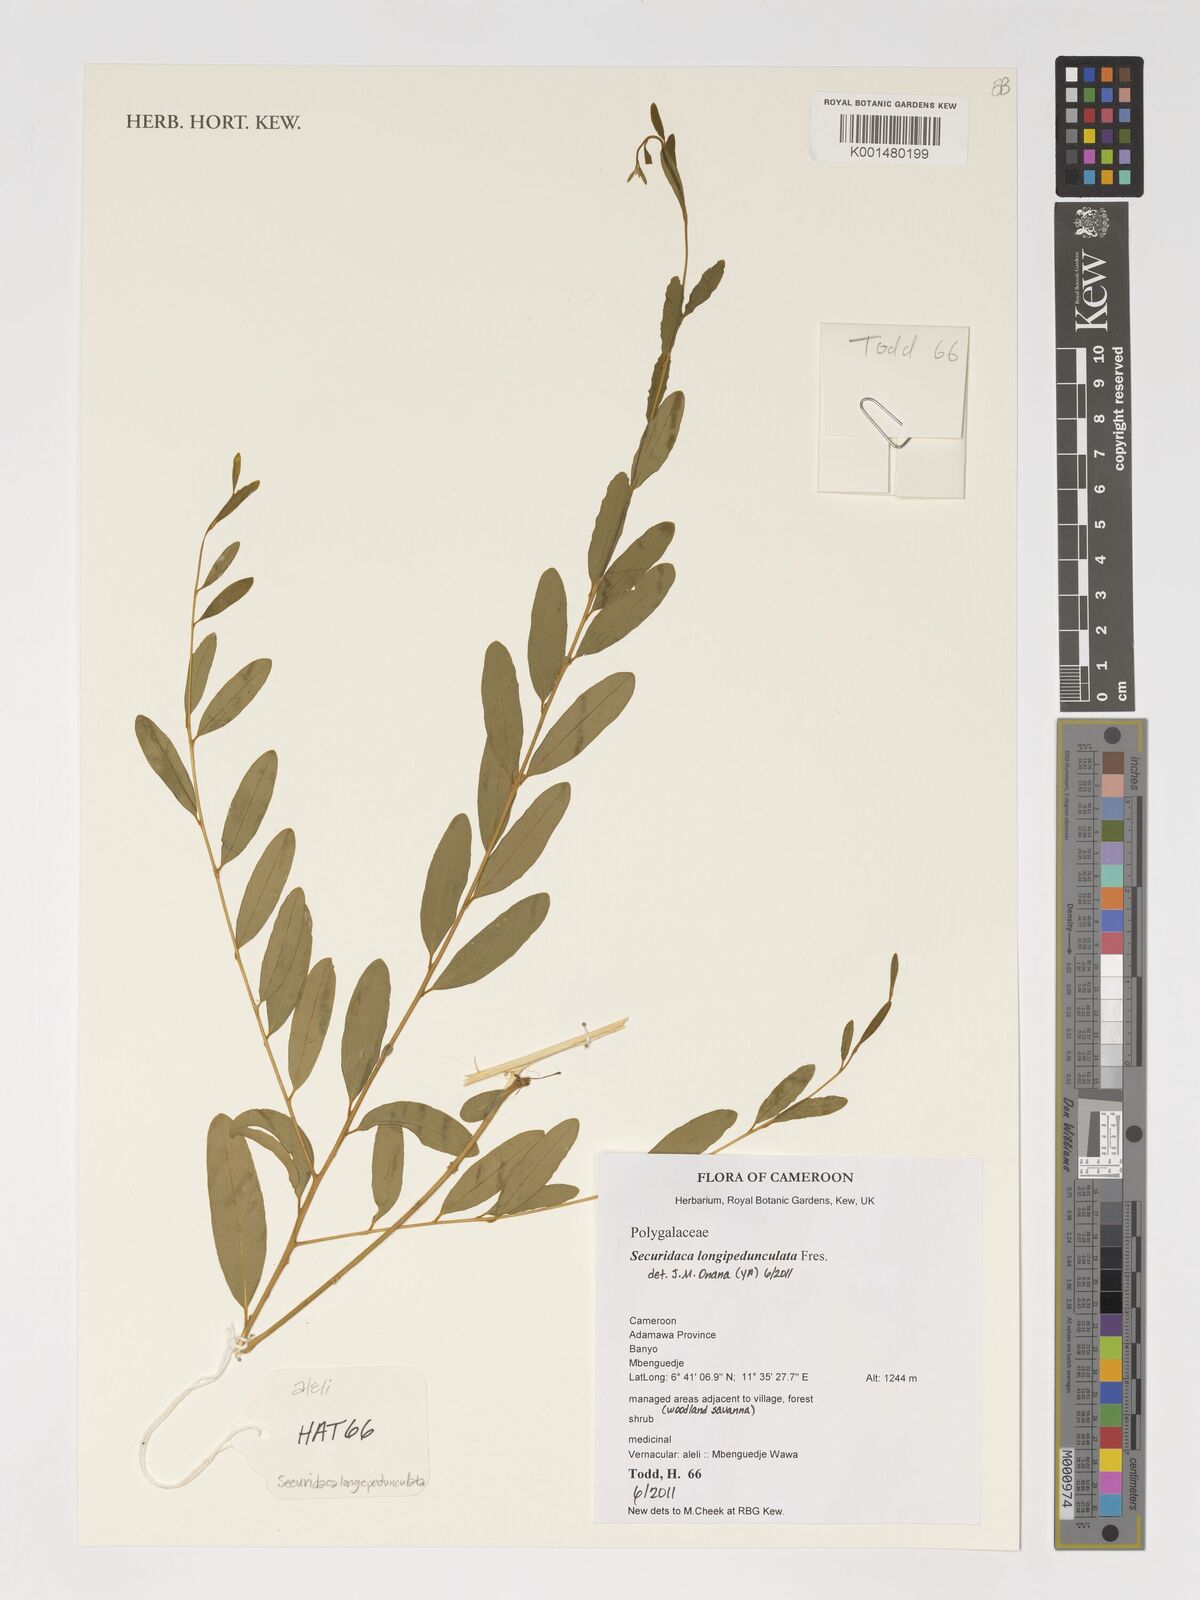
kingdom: Plantae
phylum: Tracheophyta
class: Magnoliopsida
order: Fabales
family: Polygalaceae
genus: Securidaca
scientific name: Securidaca
